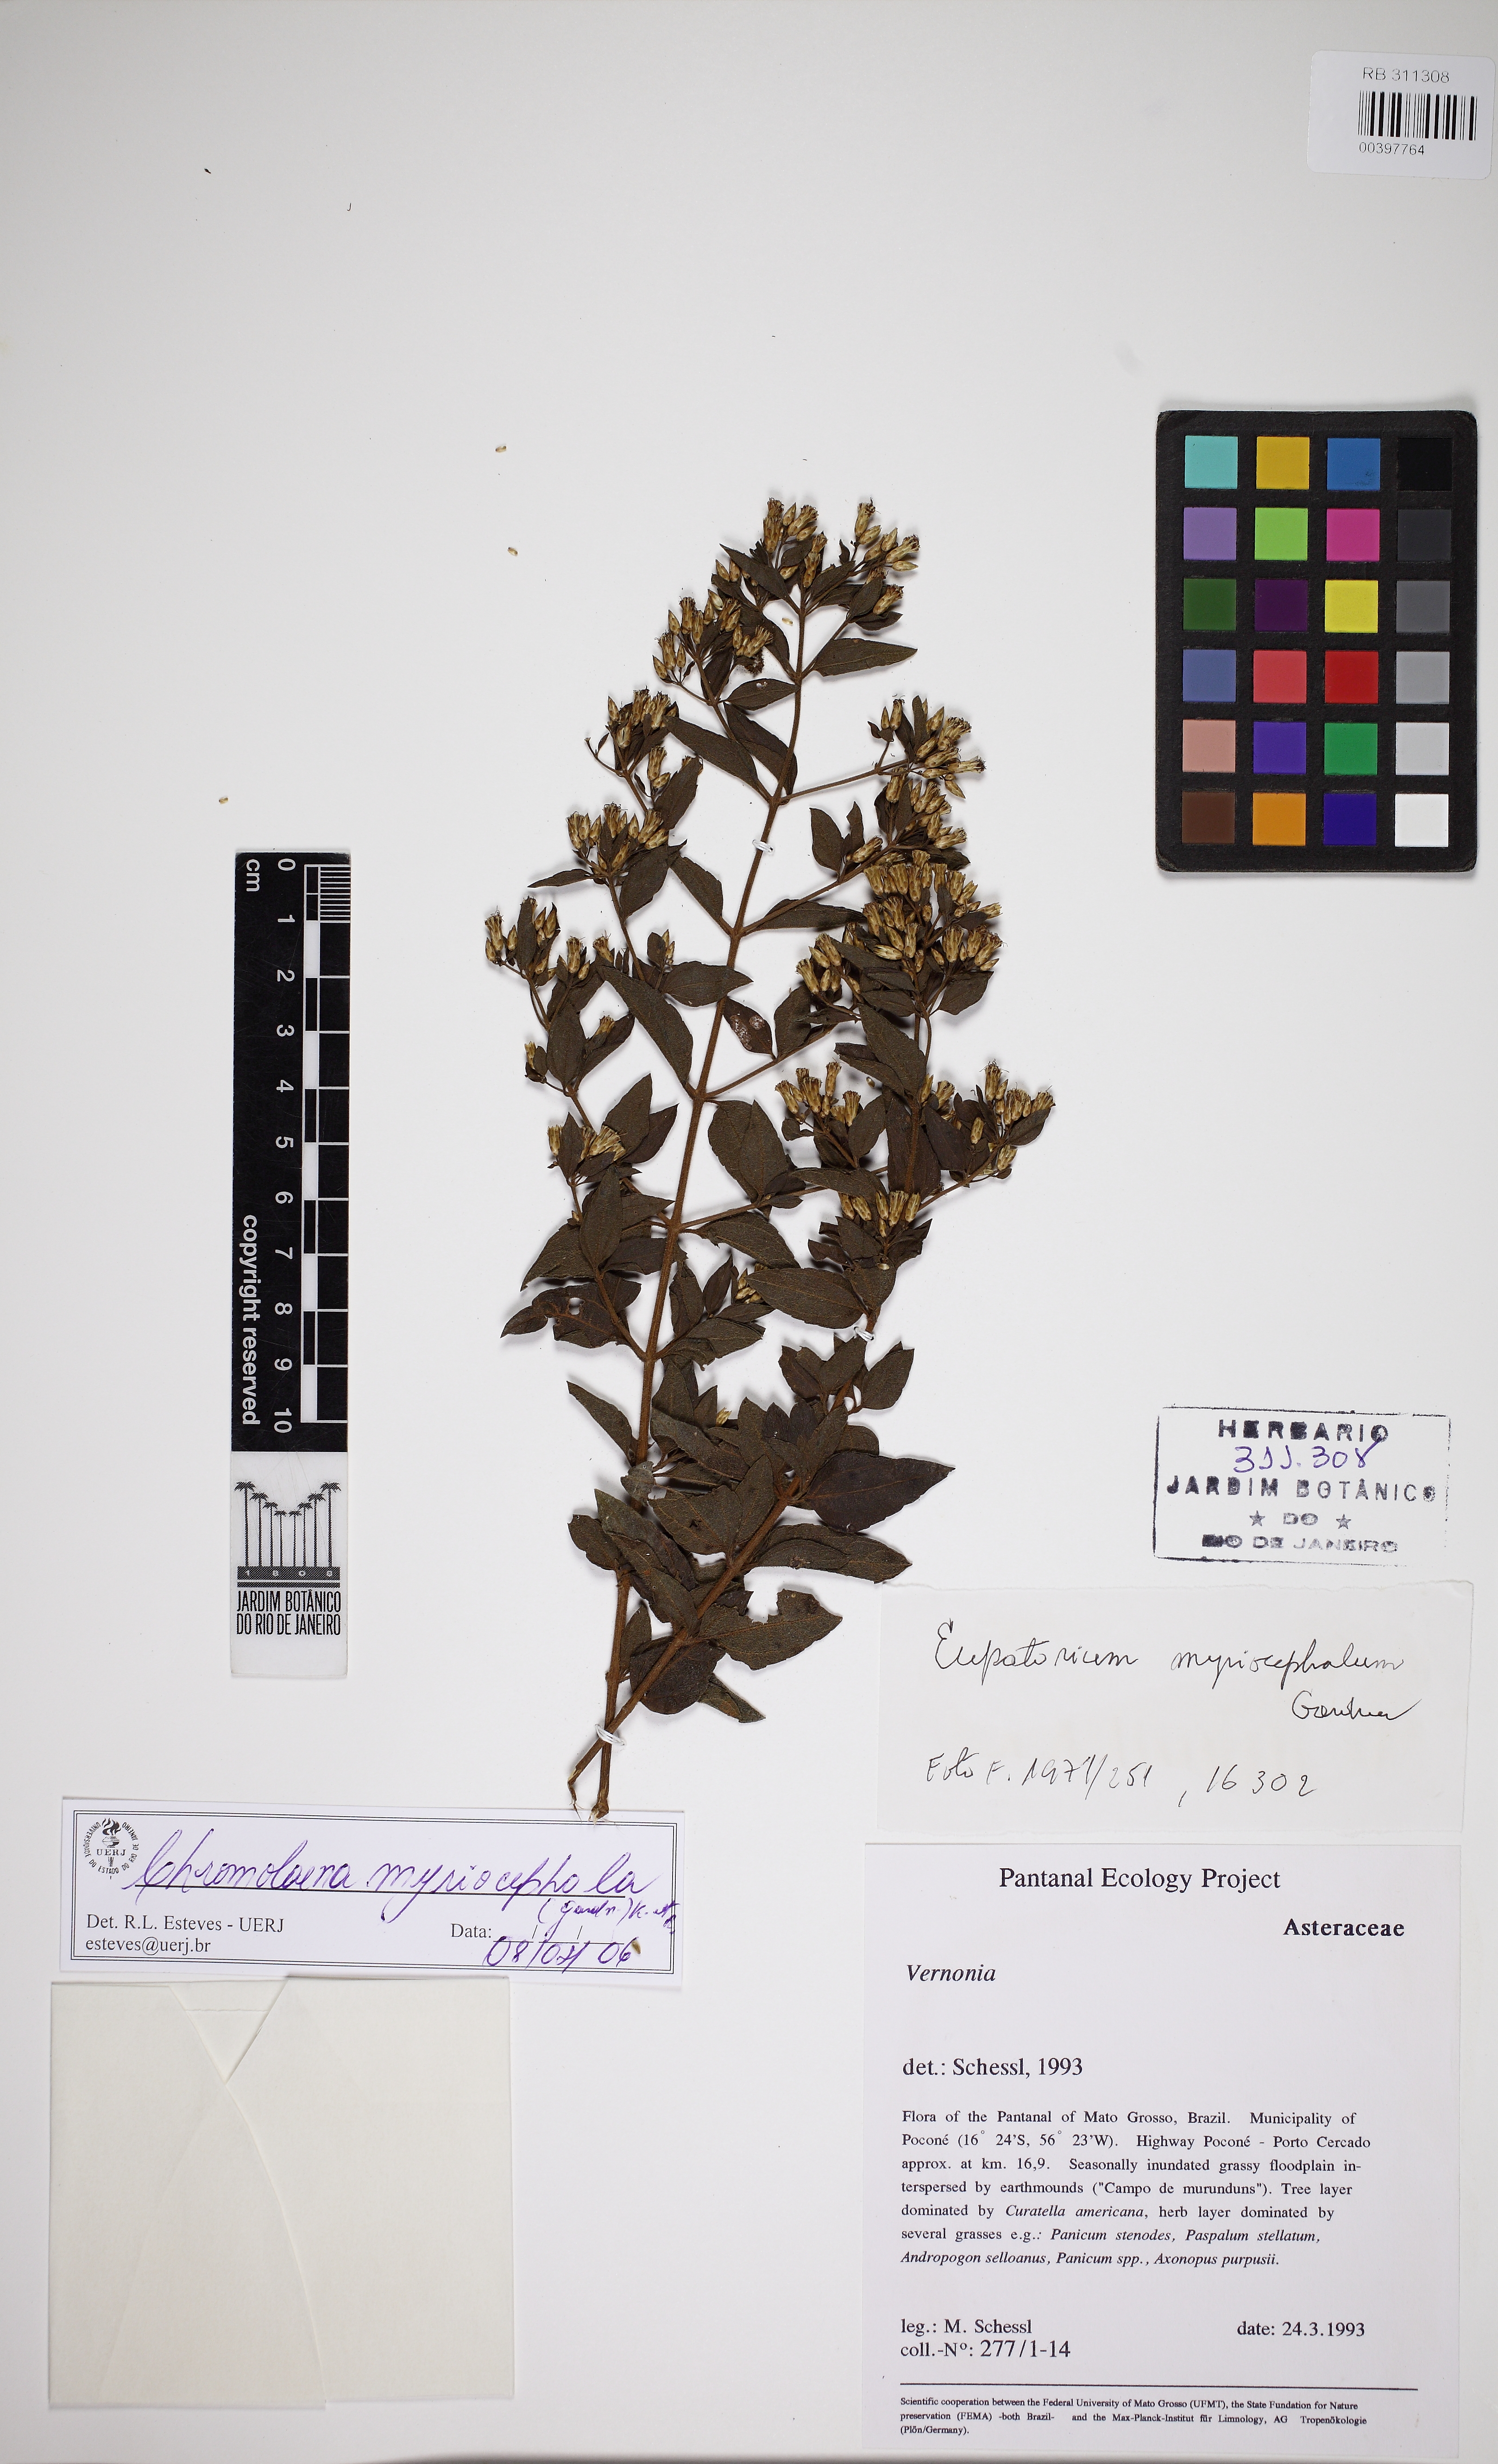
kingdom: Plantae
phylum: Tracheophyta
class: Magnoliopsida
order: Asterales
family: Asteraceae
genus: Chromolaena
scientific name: Chromolaena multiflosculosa
